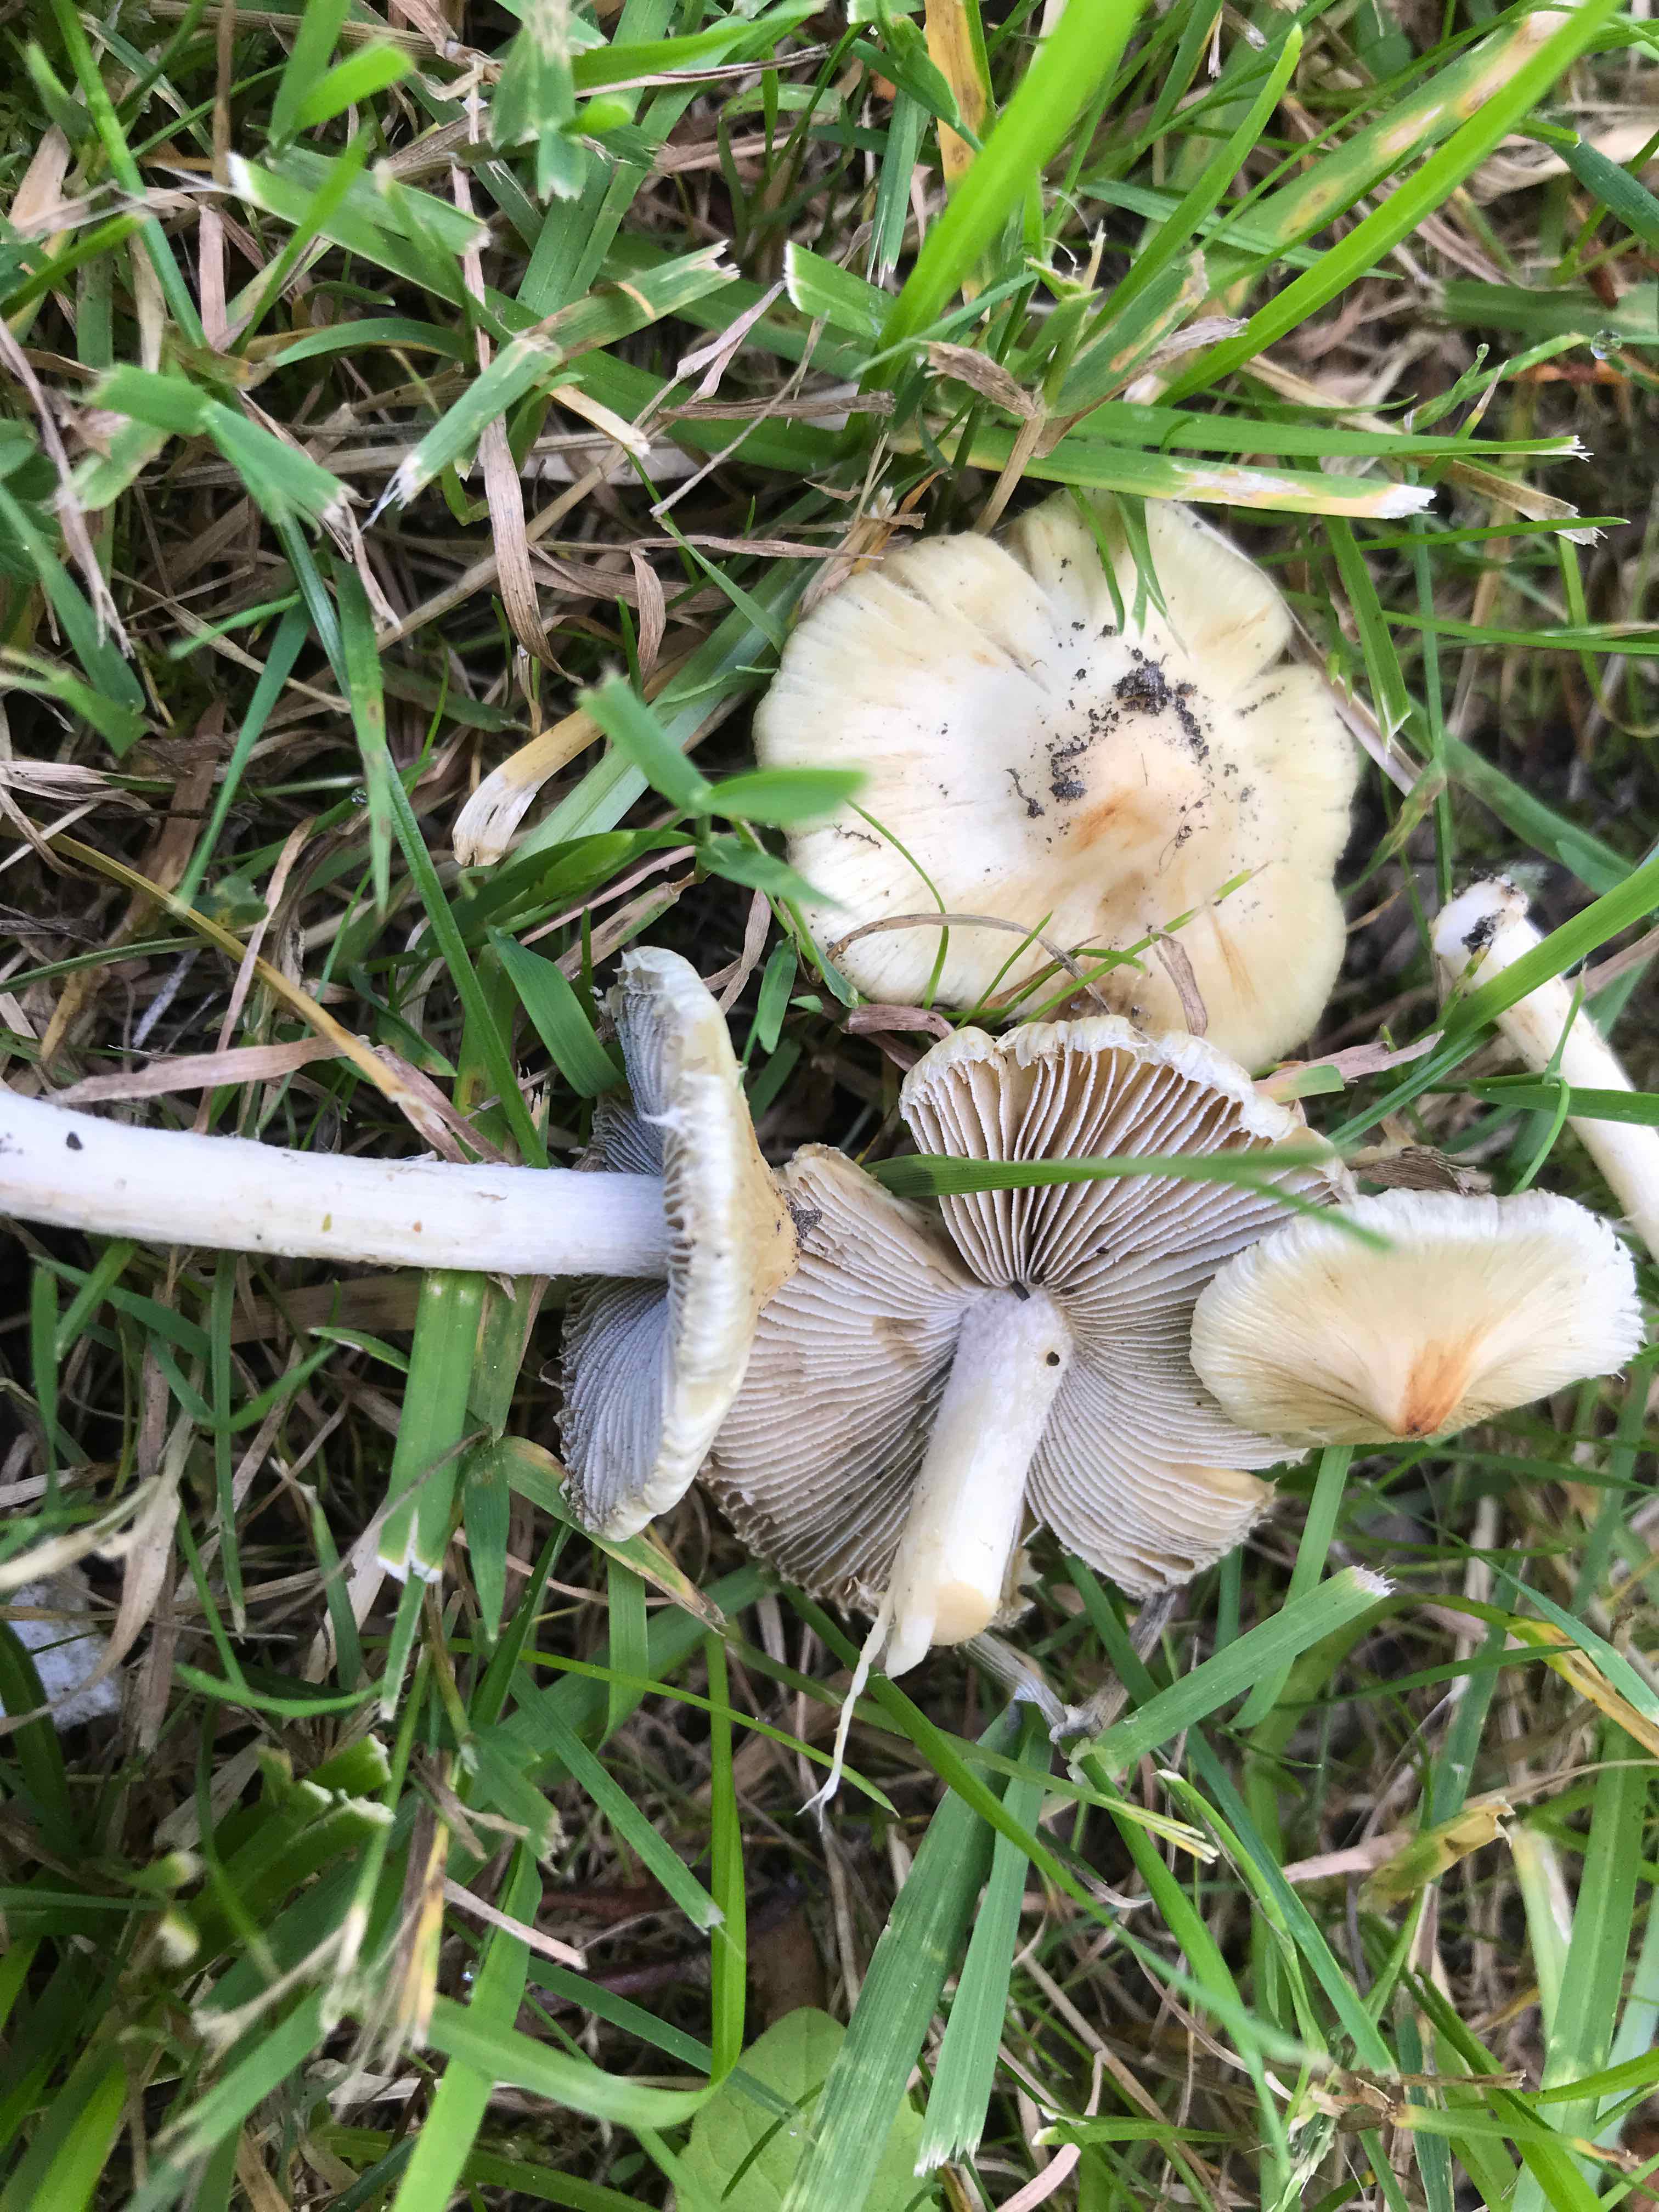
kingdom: Fungi
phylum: Basidiomycota
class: Agaricomycetes
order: Agaricales
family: Inocybaceae
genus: Inosperma
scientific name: Inosperma
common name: Trævlhat
